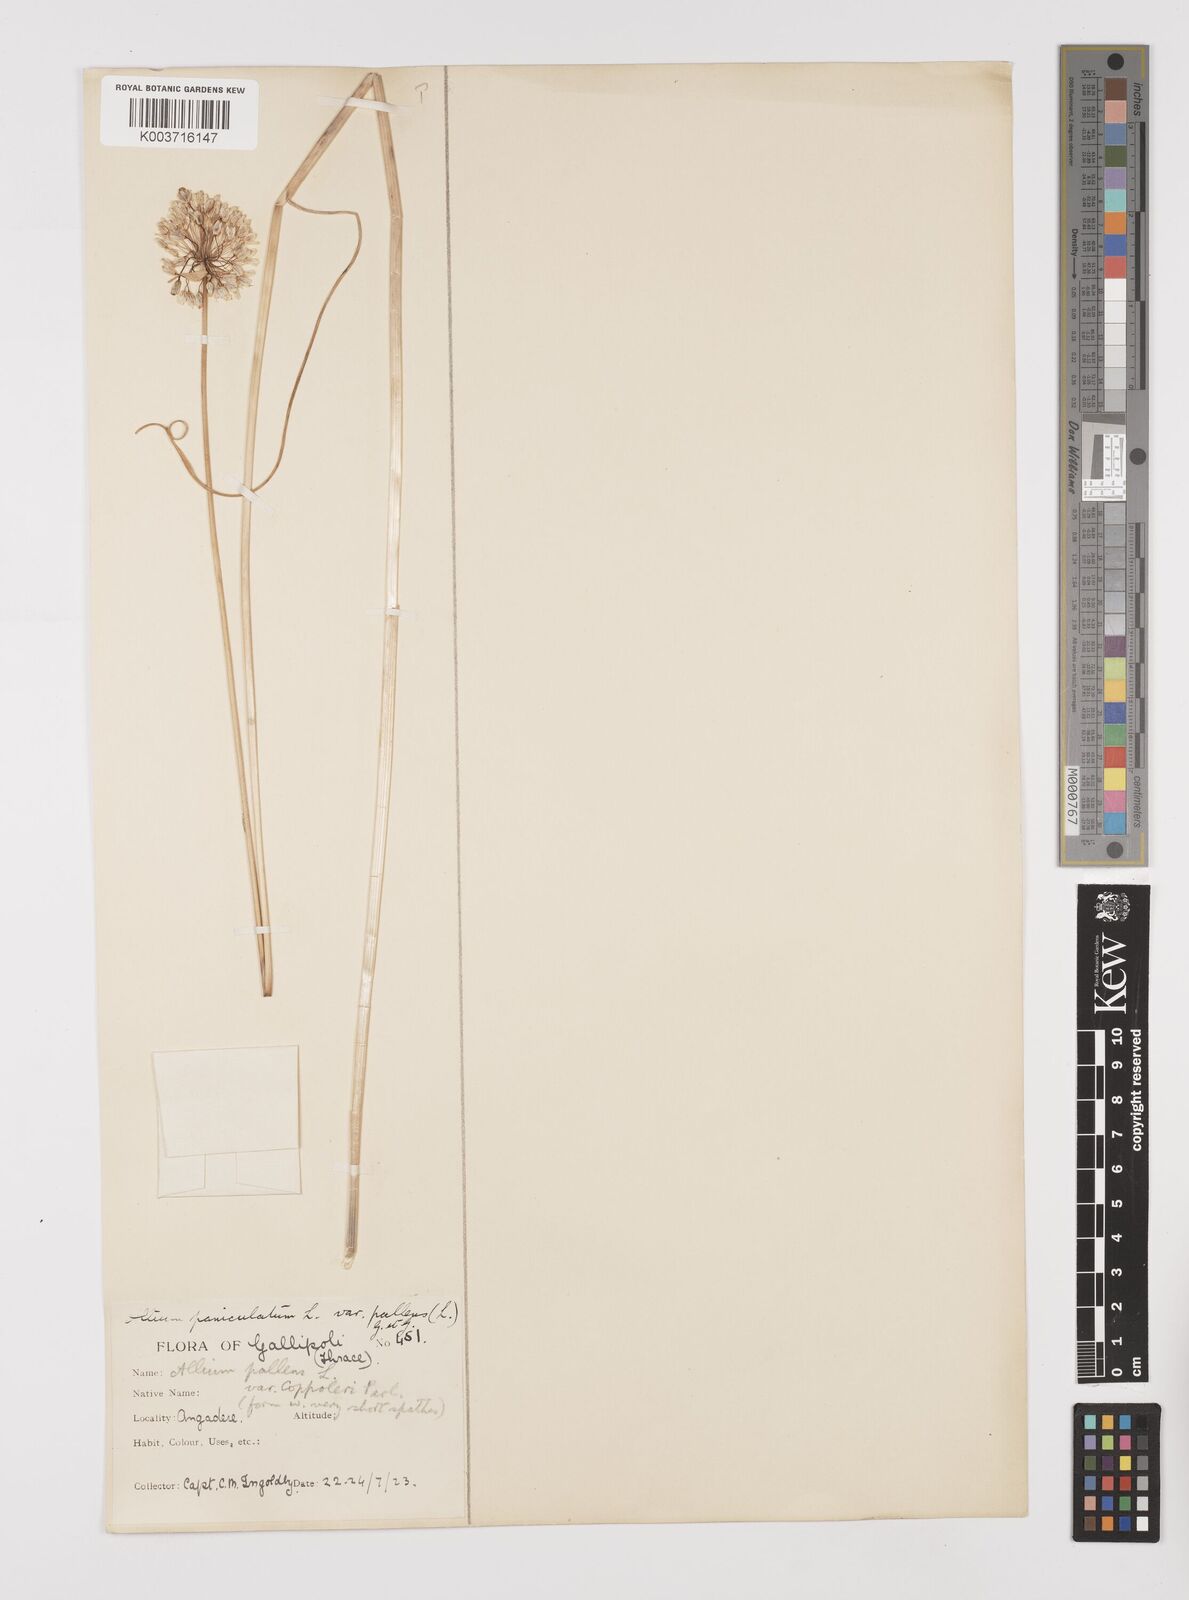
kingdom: Plantae
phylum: Tracheophyta
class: Liliopsida
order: Asparagales
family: Amaryllidaceae
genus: Allium
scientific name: Allium pallens
